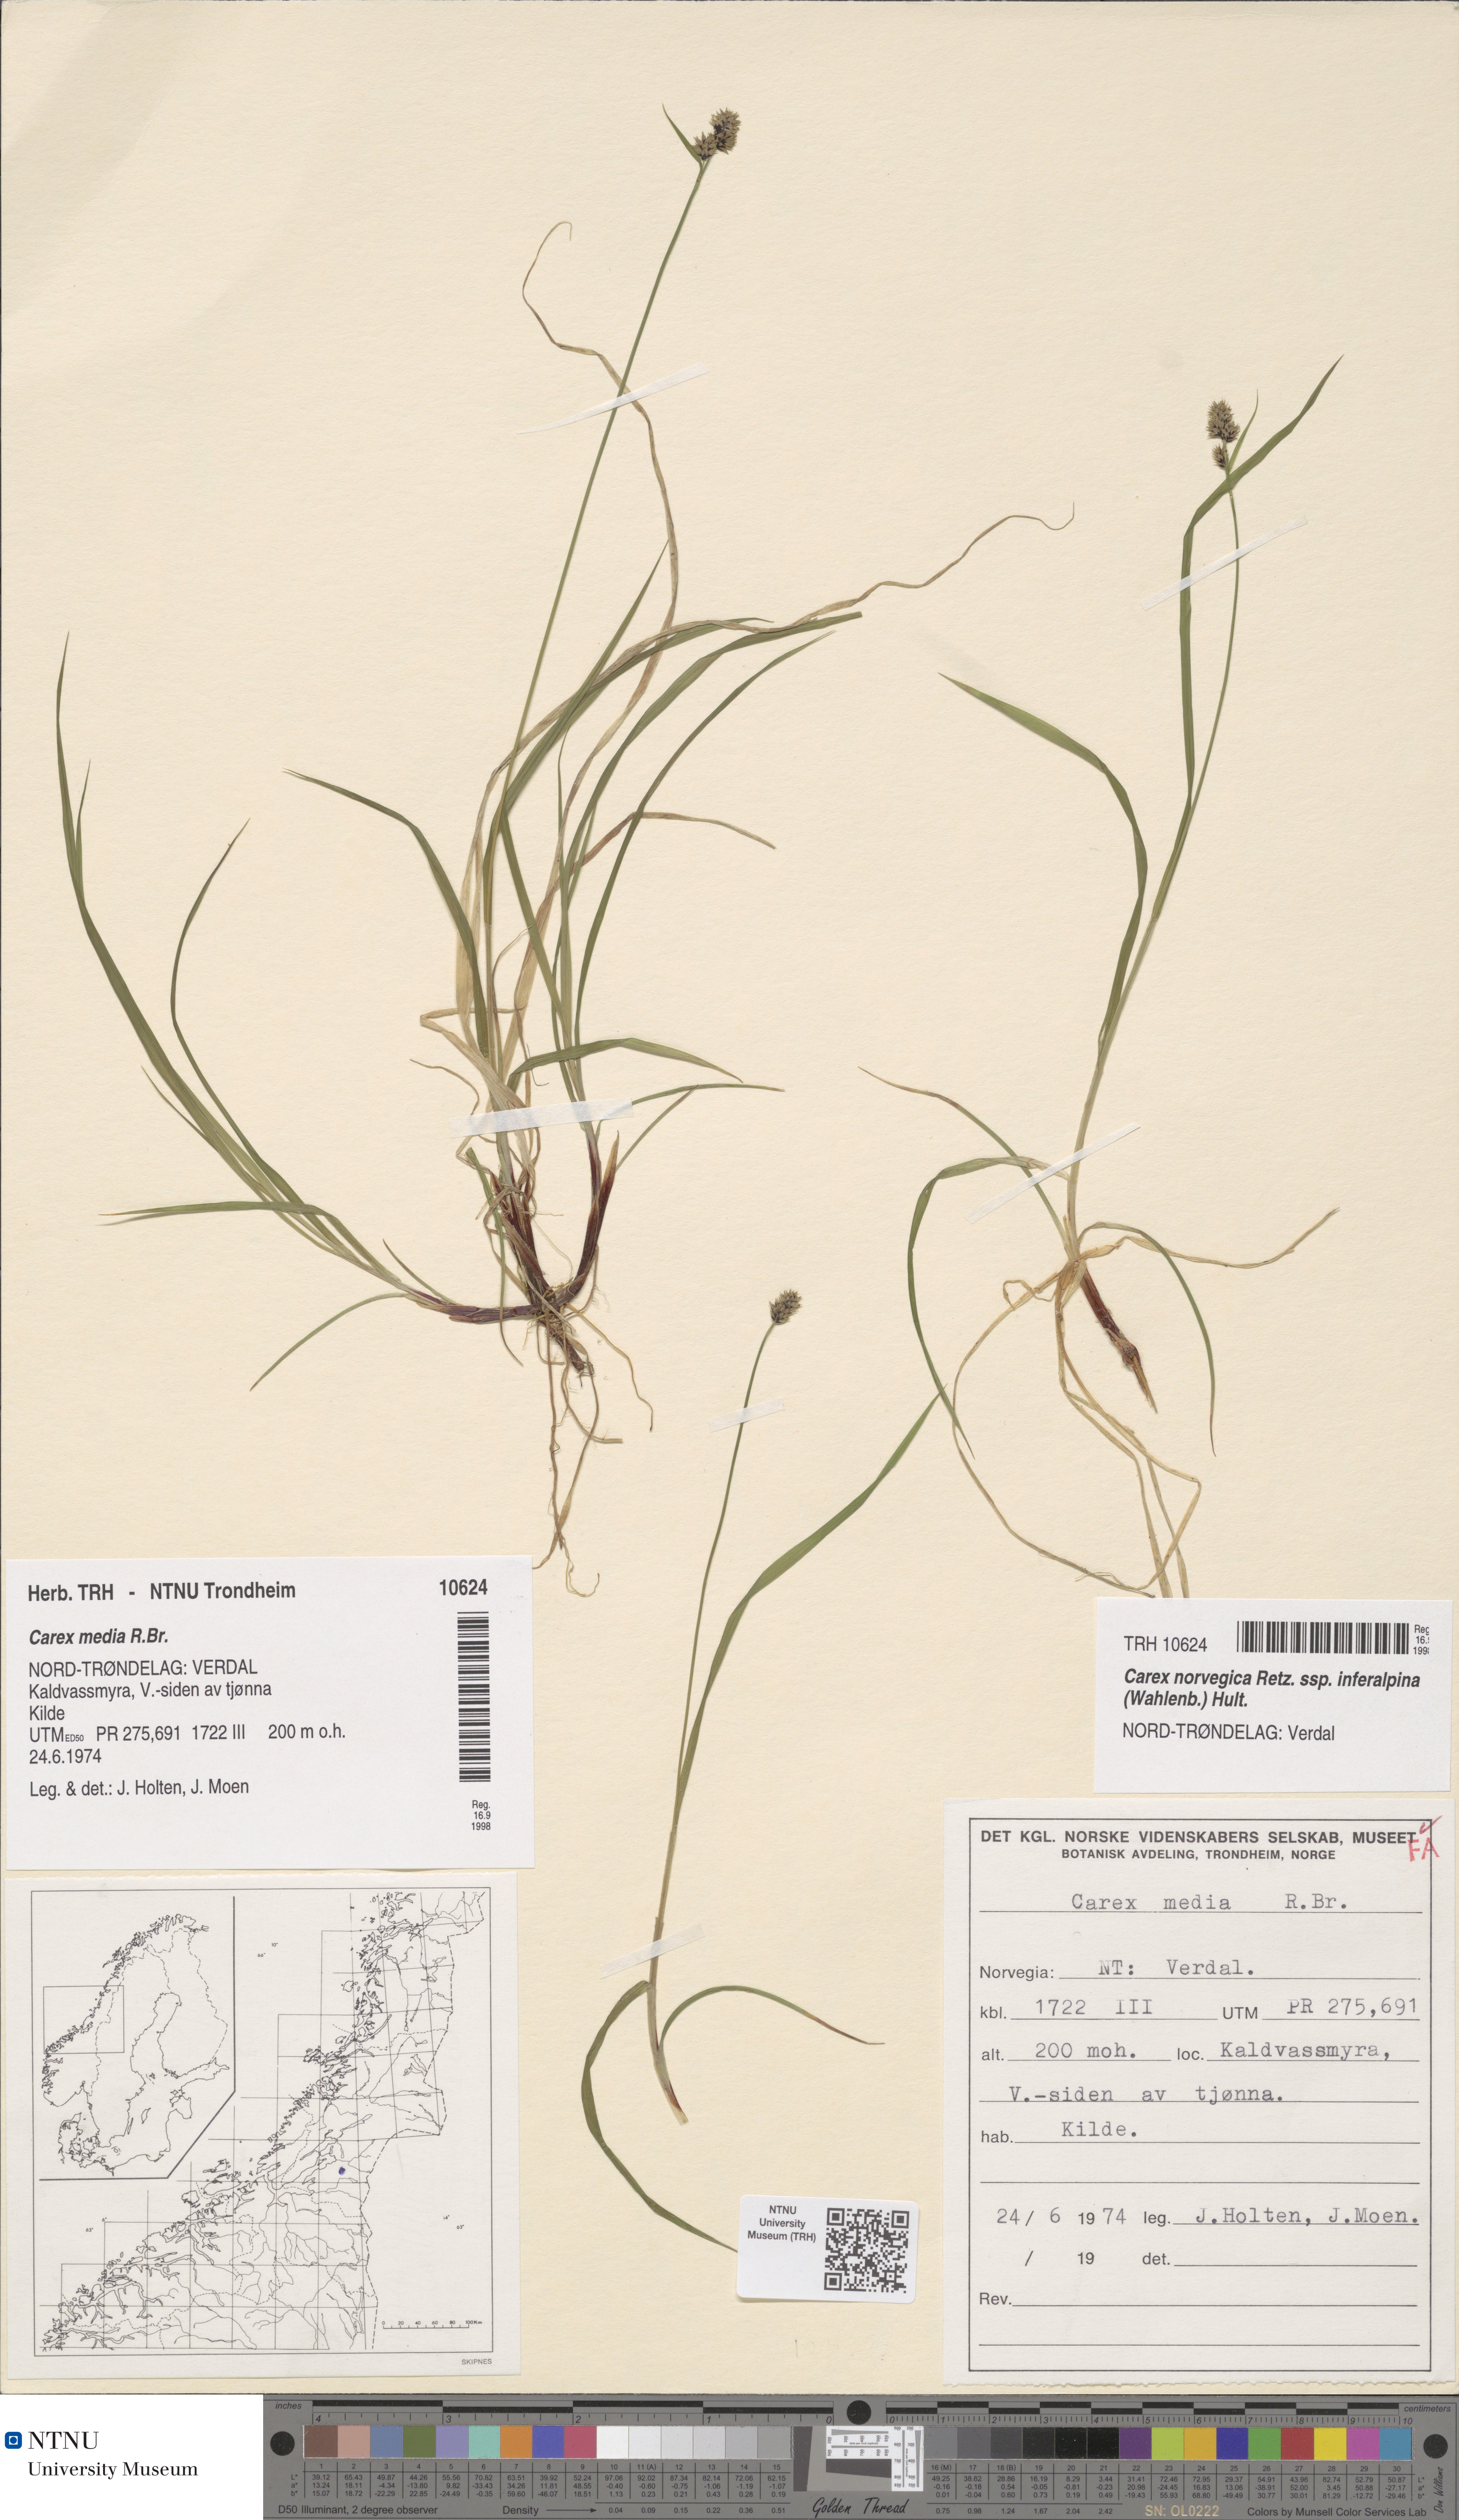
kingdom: Plantae
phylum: Tracheophyta
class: Liliopsida
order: Poales
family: Cyperaceae
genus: Carex
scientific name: Carex media
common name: Alpine sedge
